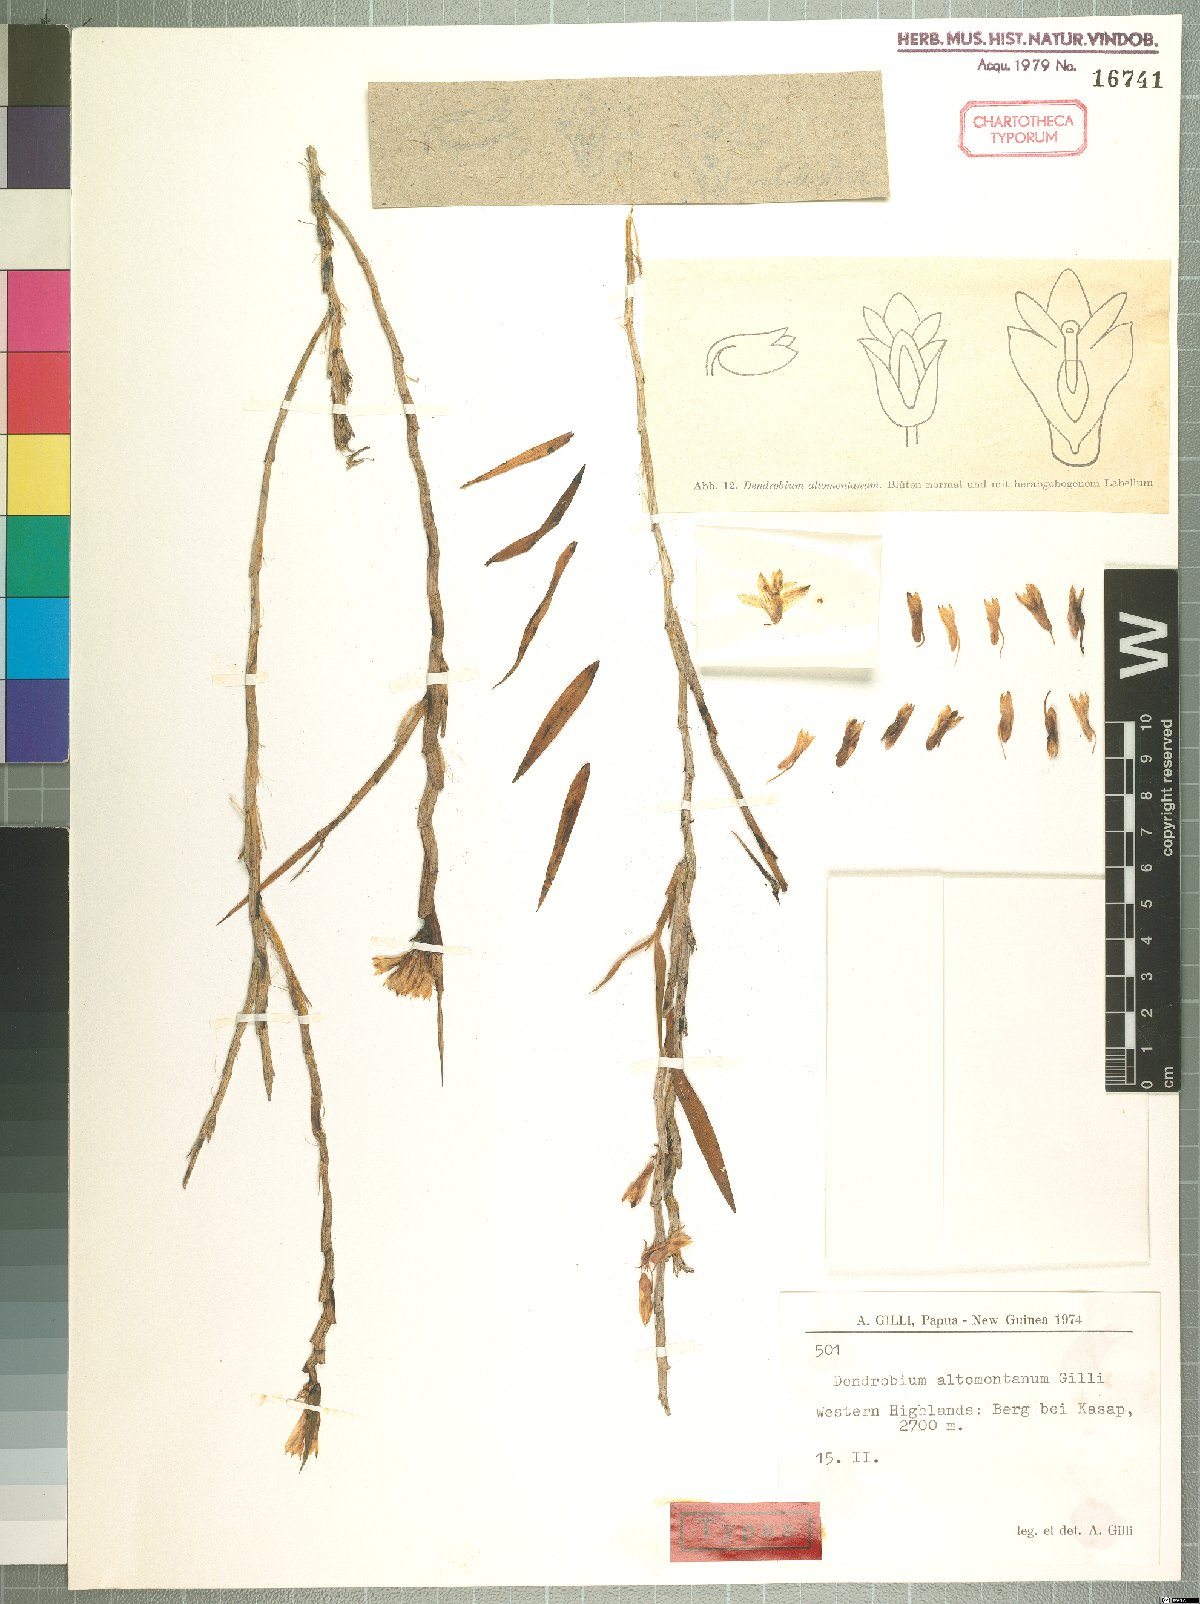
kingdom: Plantae
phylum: Tracheophyta
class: Liliopsida
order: Asparagales
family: Orchidaceae
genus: Dendrobium
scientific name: Dendrobium caliculi-mentum
